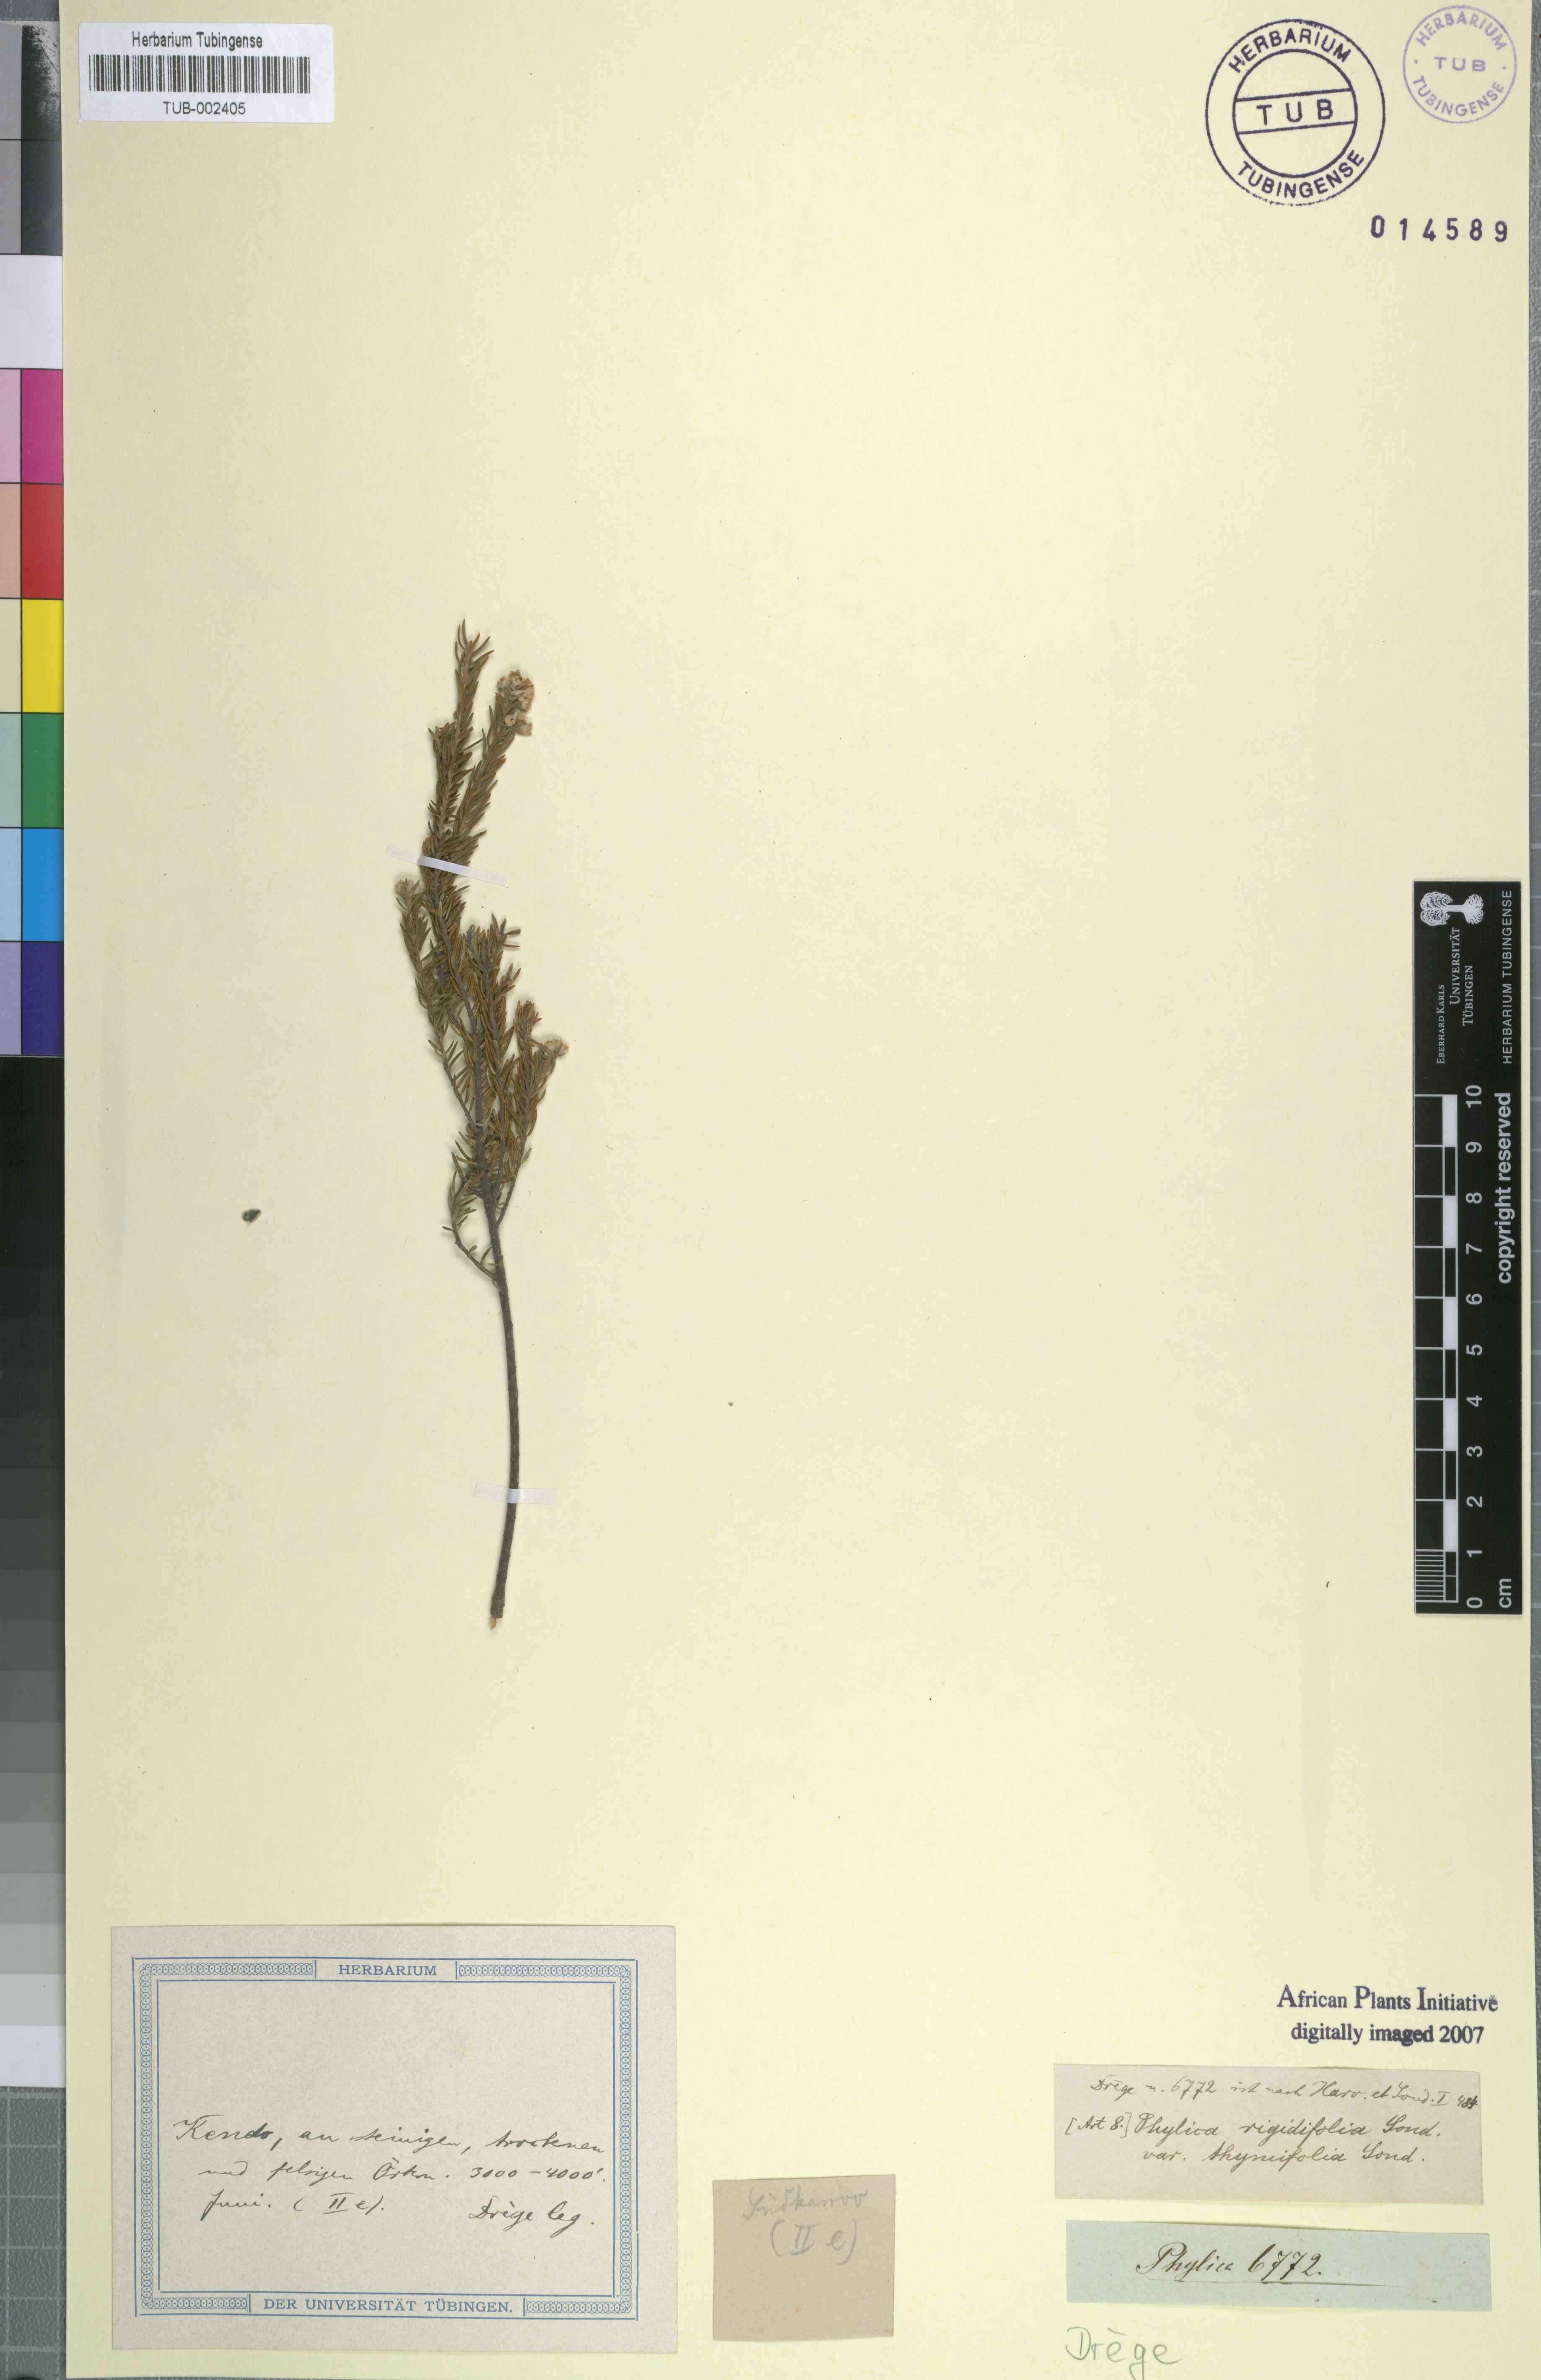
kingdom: Plantae
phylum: Tracheophyta
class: Magnoliopsida
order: Rosales
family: Rhamnaceae
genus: Phylica
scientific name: Phylica rigidifolia
